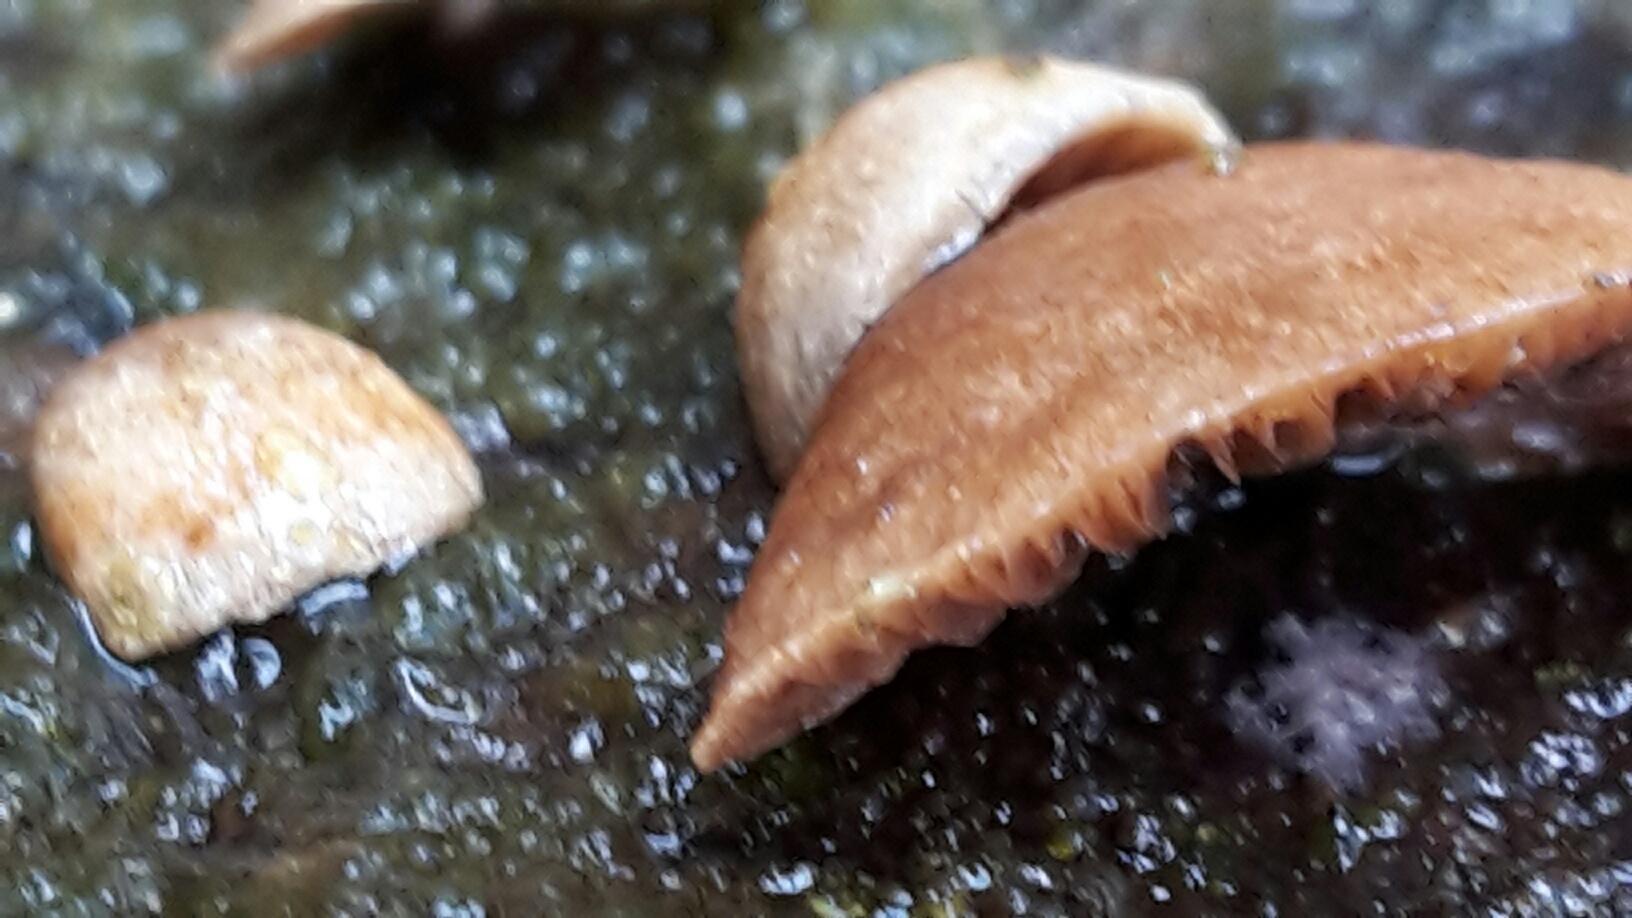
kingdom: Fungi
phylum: Basidiomycota
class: Agaricomycetes
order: Agaricales
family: Strophariaceae
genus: Deconica
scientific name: Deconica horizontalis
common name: ved-stråhat
